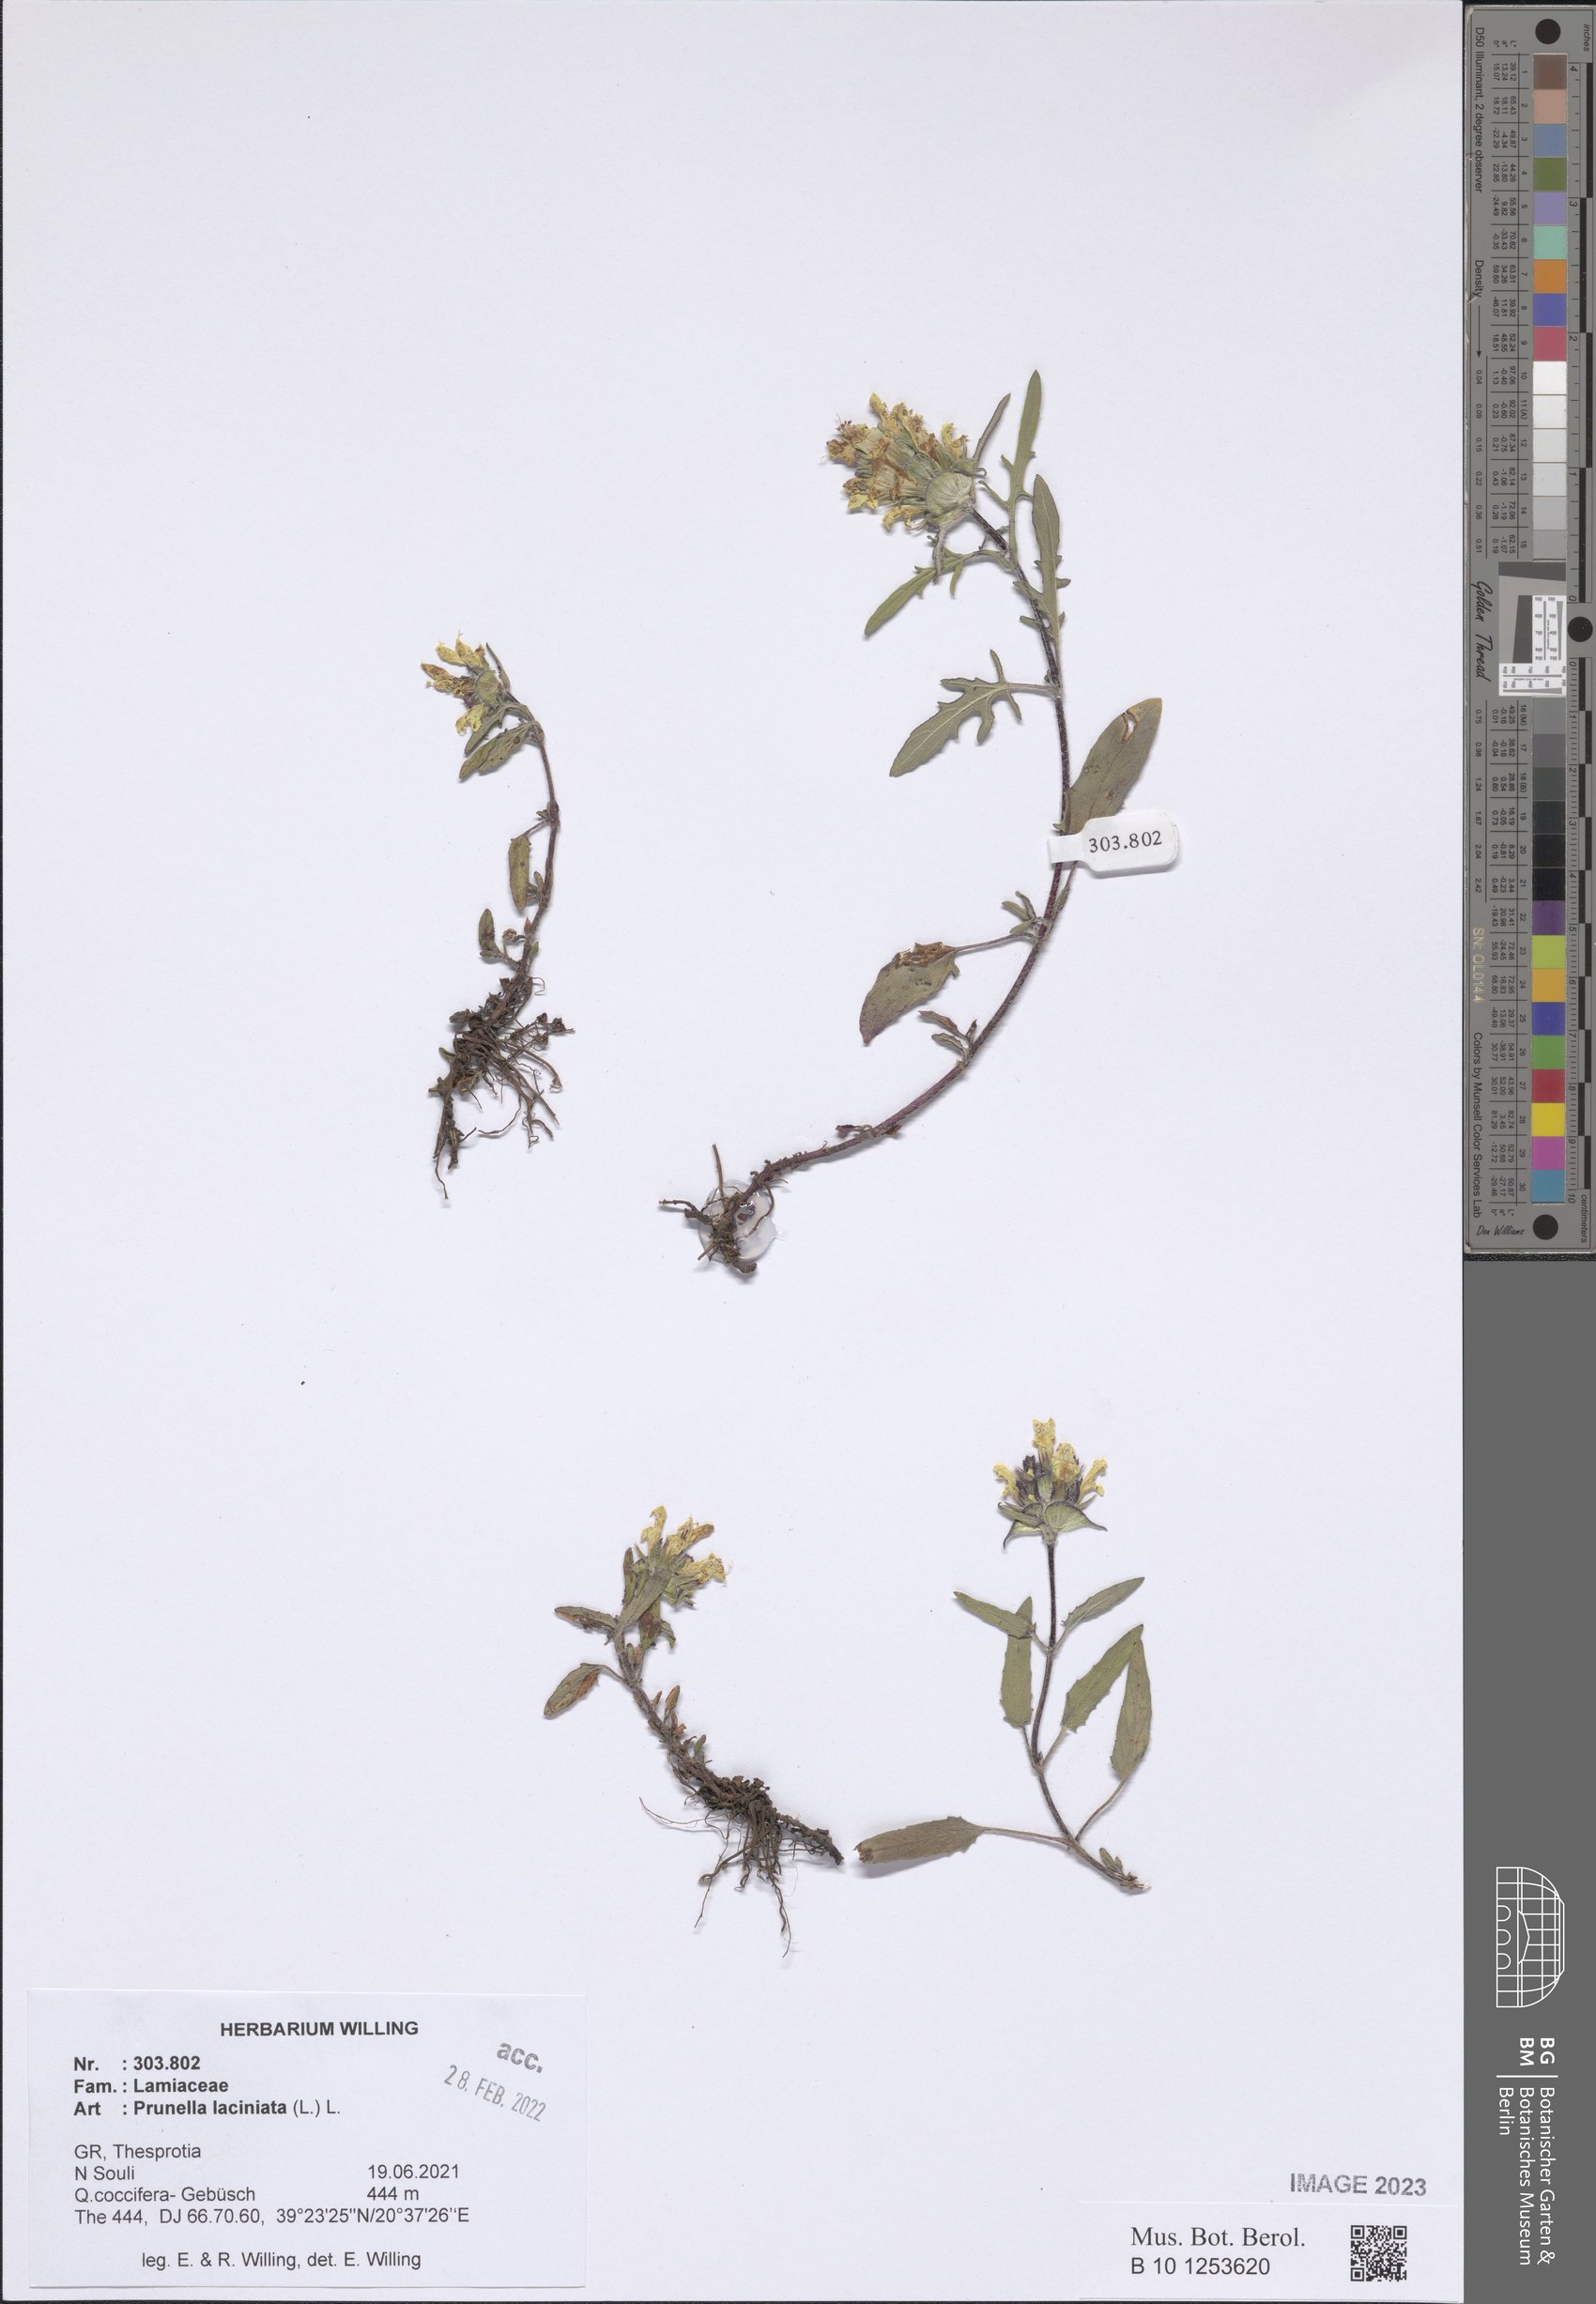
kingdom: Plantae
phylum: Tracheophyta
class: Magnoliopsida
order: Lamiales
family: Lamiaceae
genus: Prunella
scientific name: Prunella laciniata
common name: Cut-leaved selfheal
